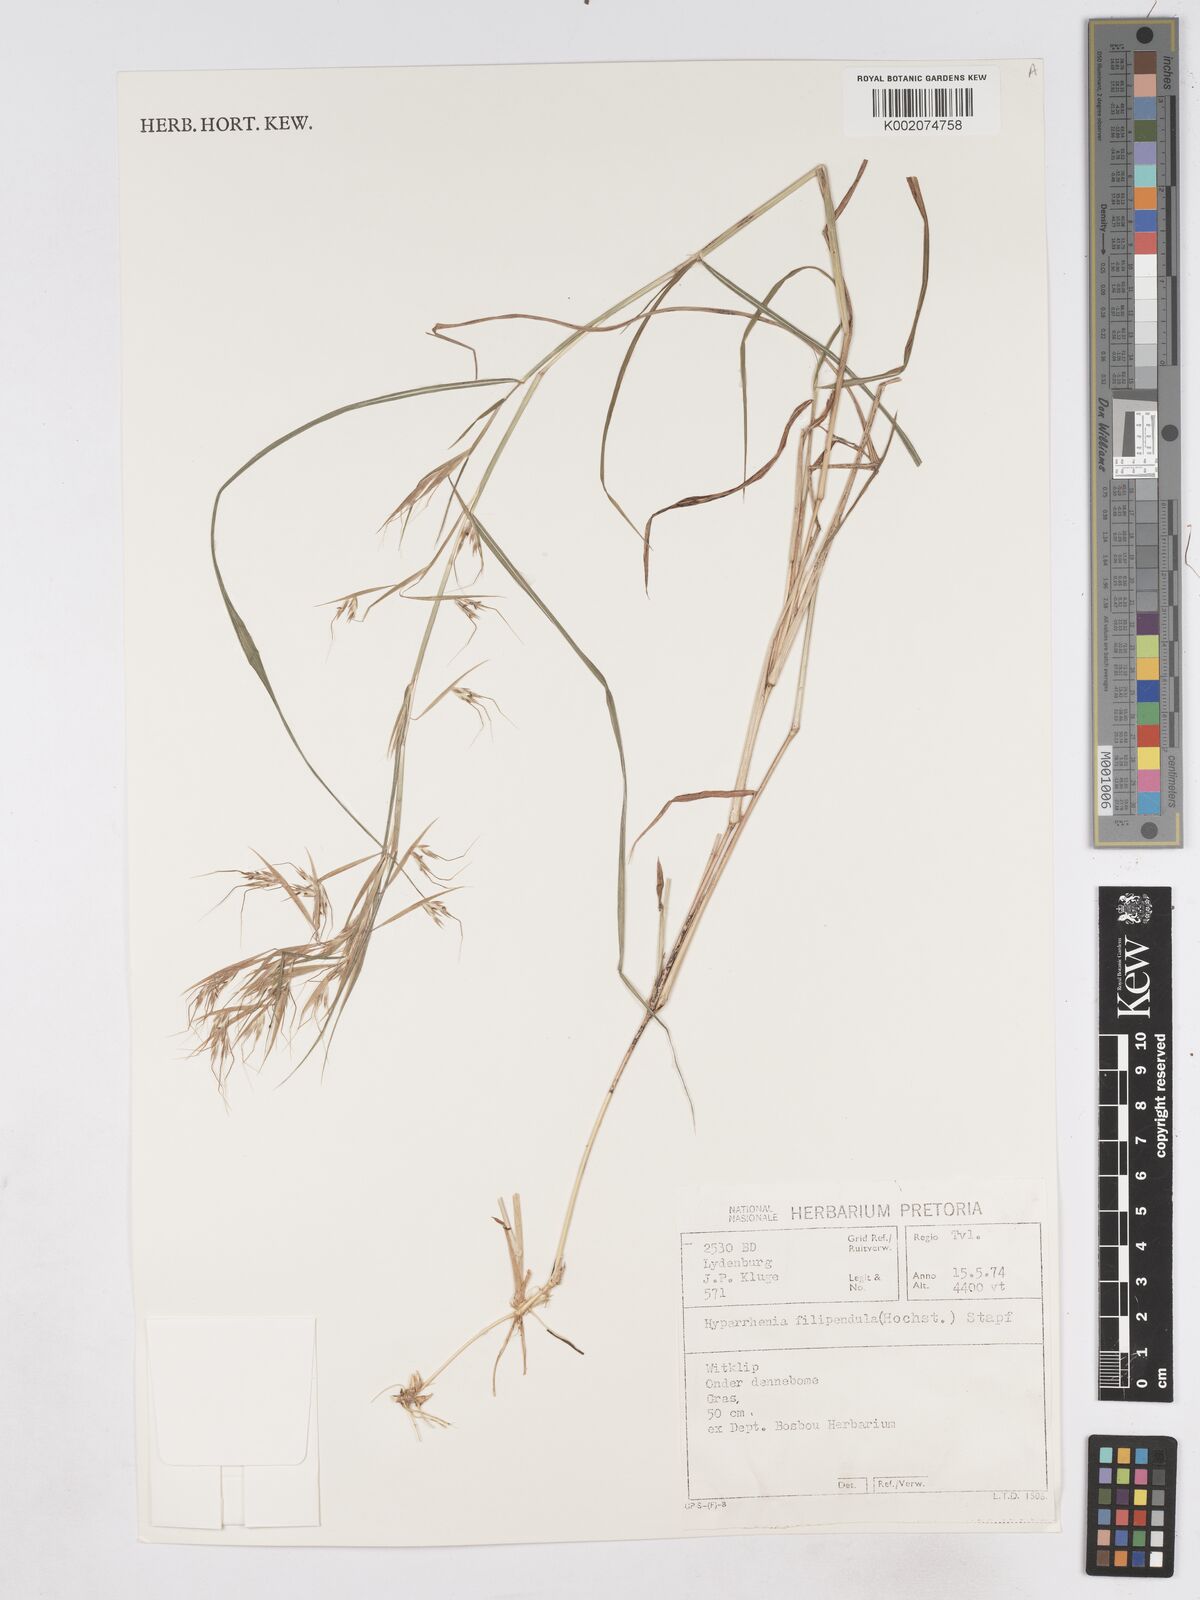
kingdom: Plantae
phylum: Tracheophyta
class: Liliopsida
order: Poales
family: Poaceae
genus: Hyparrhenia
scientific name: Hyparrhenia filipendula
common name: Tambookie grass
